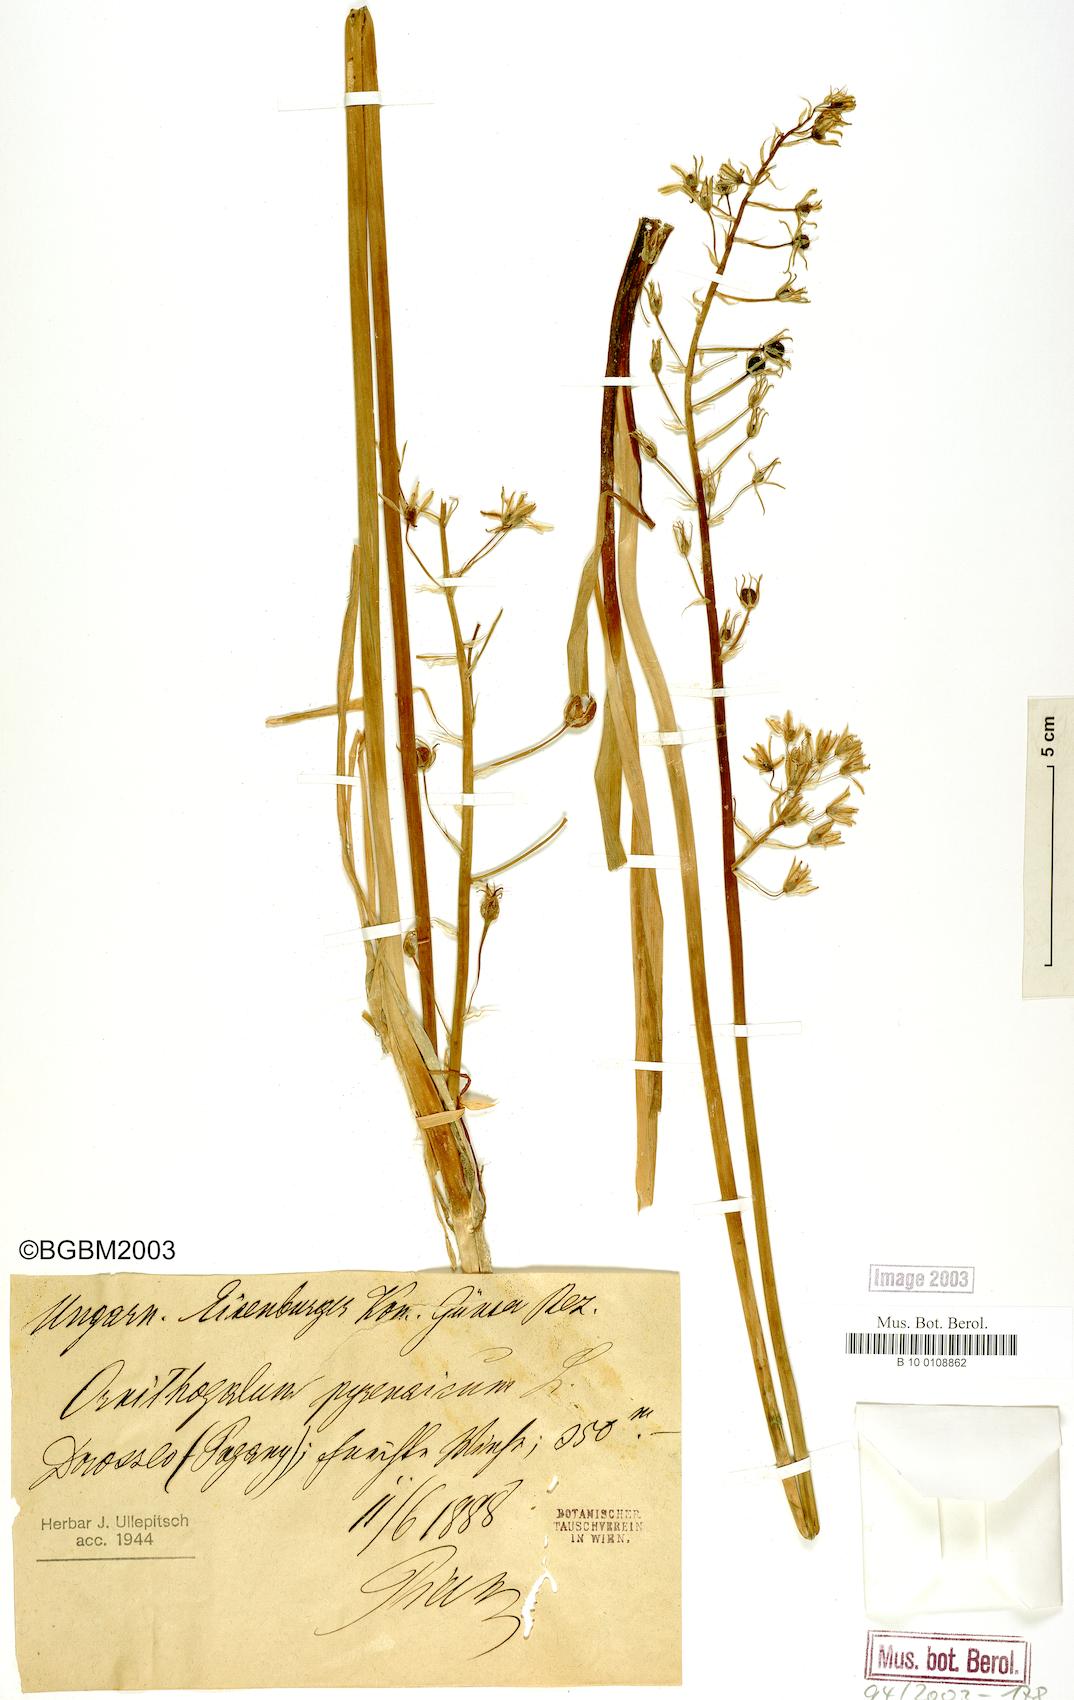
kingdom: Plantae
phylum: Tracheophyta
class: Liliopsida
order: Asparagales
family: Asparagaceae
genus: Ornithogalum
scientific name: Ornithogalum pyrenaicum
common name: Spiked star-of-bethlehem
